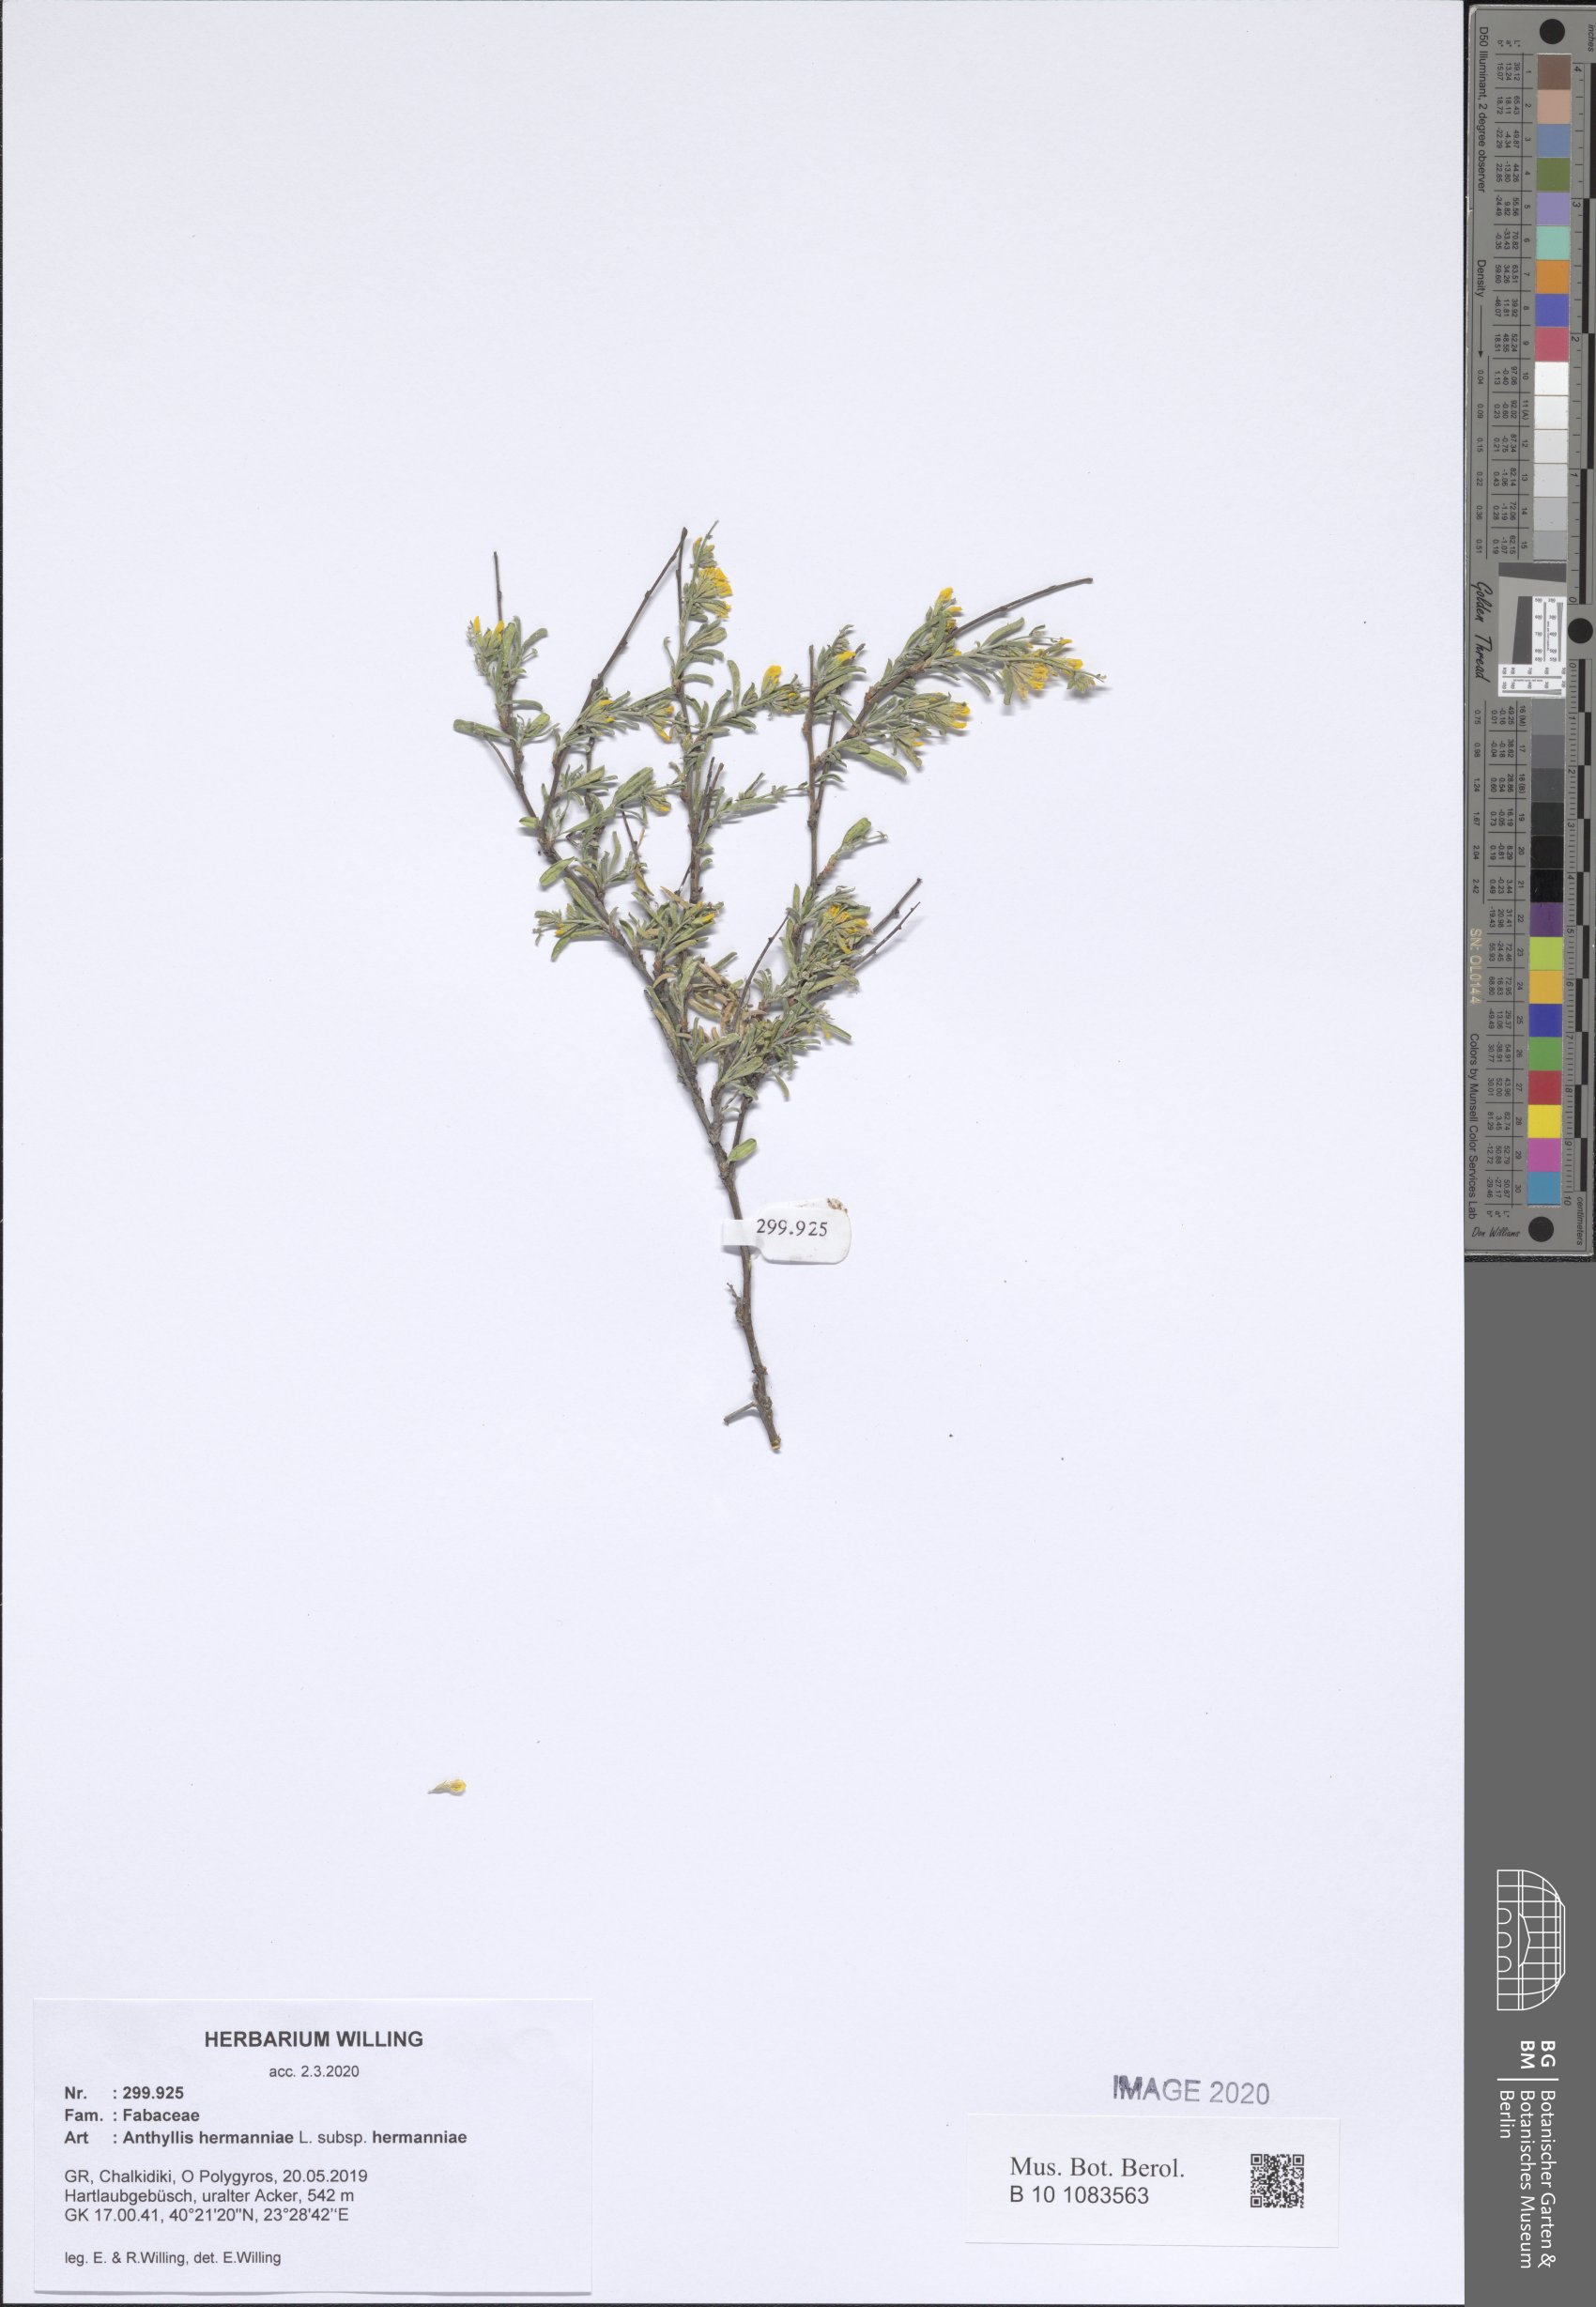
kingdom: Plantae
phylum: Tracheophyta
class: Magnoliopsida
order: Fabales
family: Fabaceae
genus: Anthyllis
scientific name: Anthyllis hermanniae
